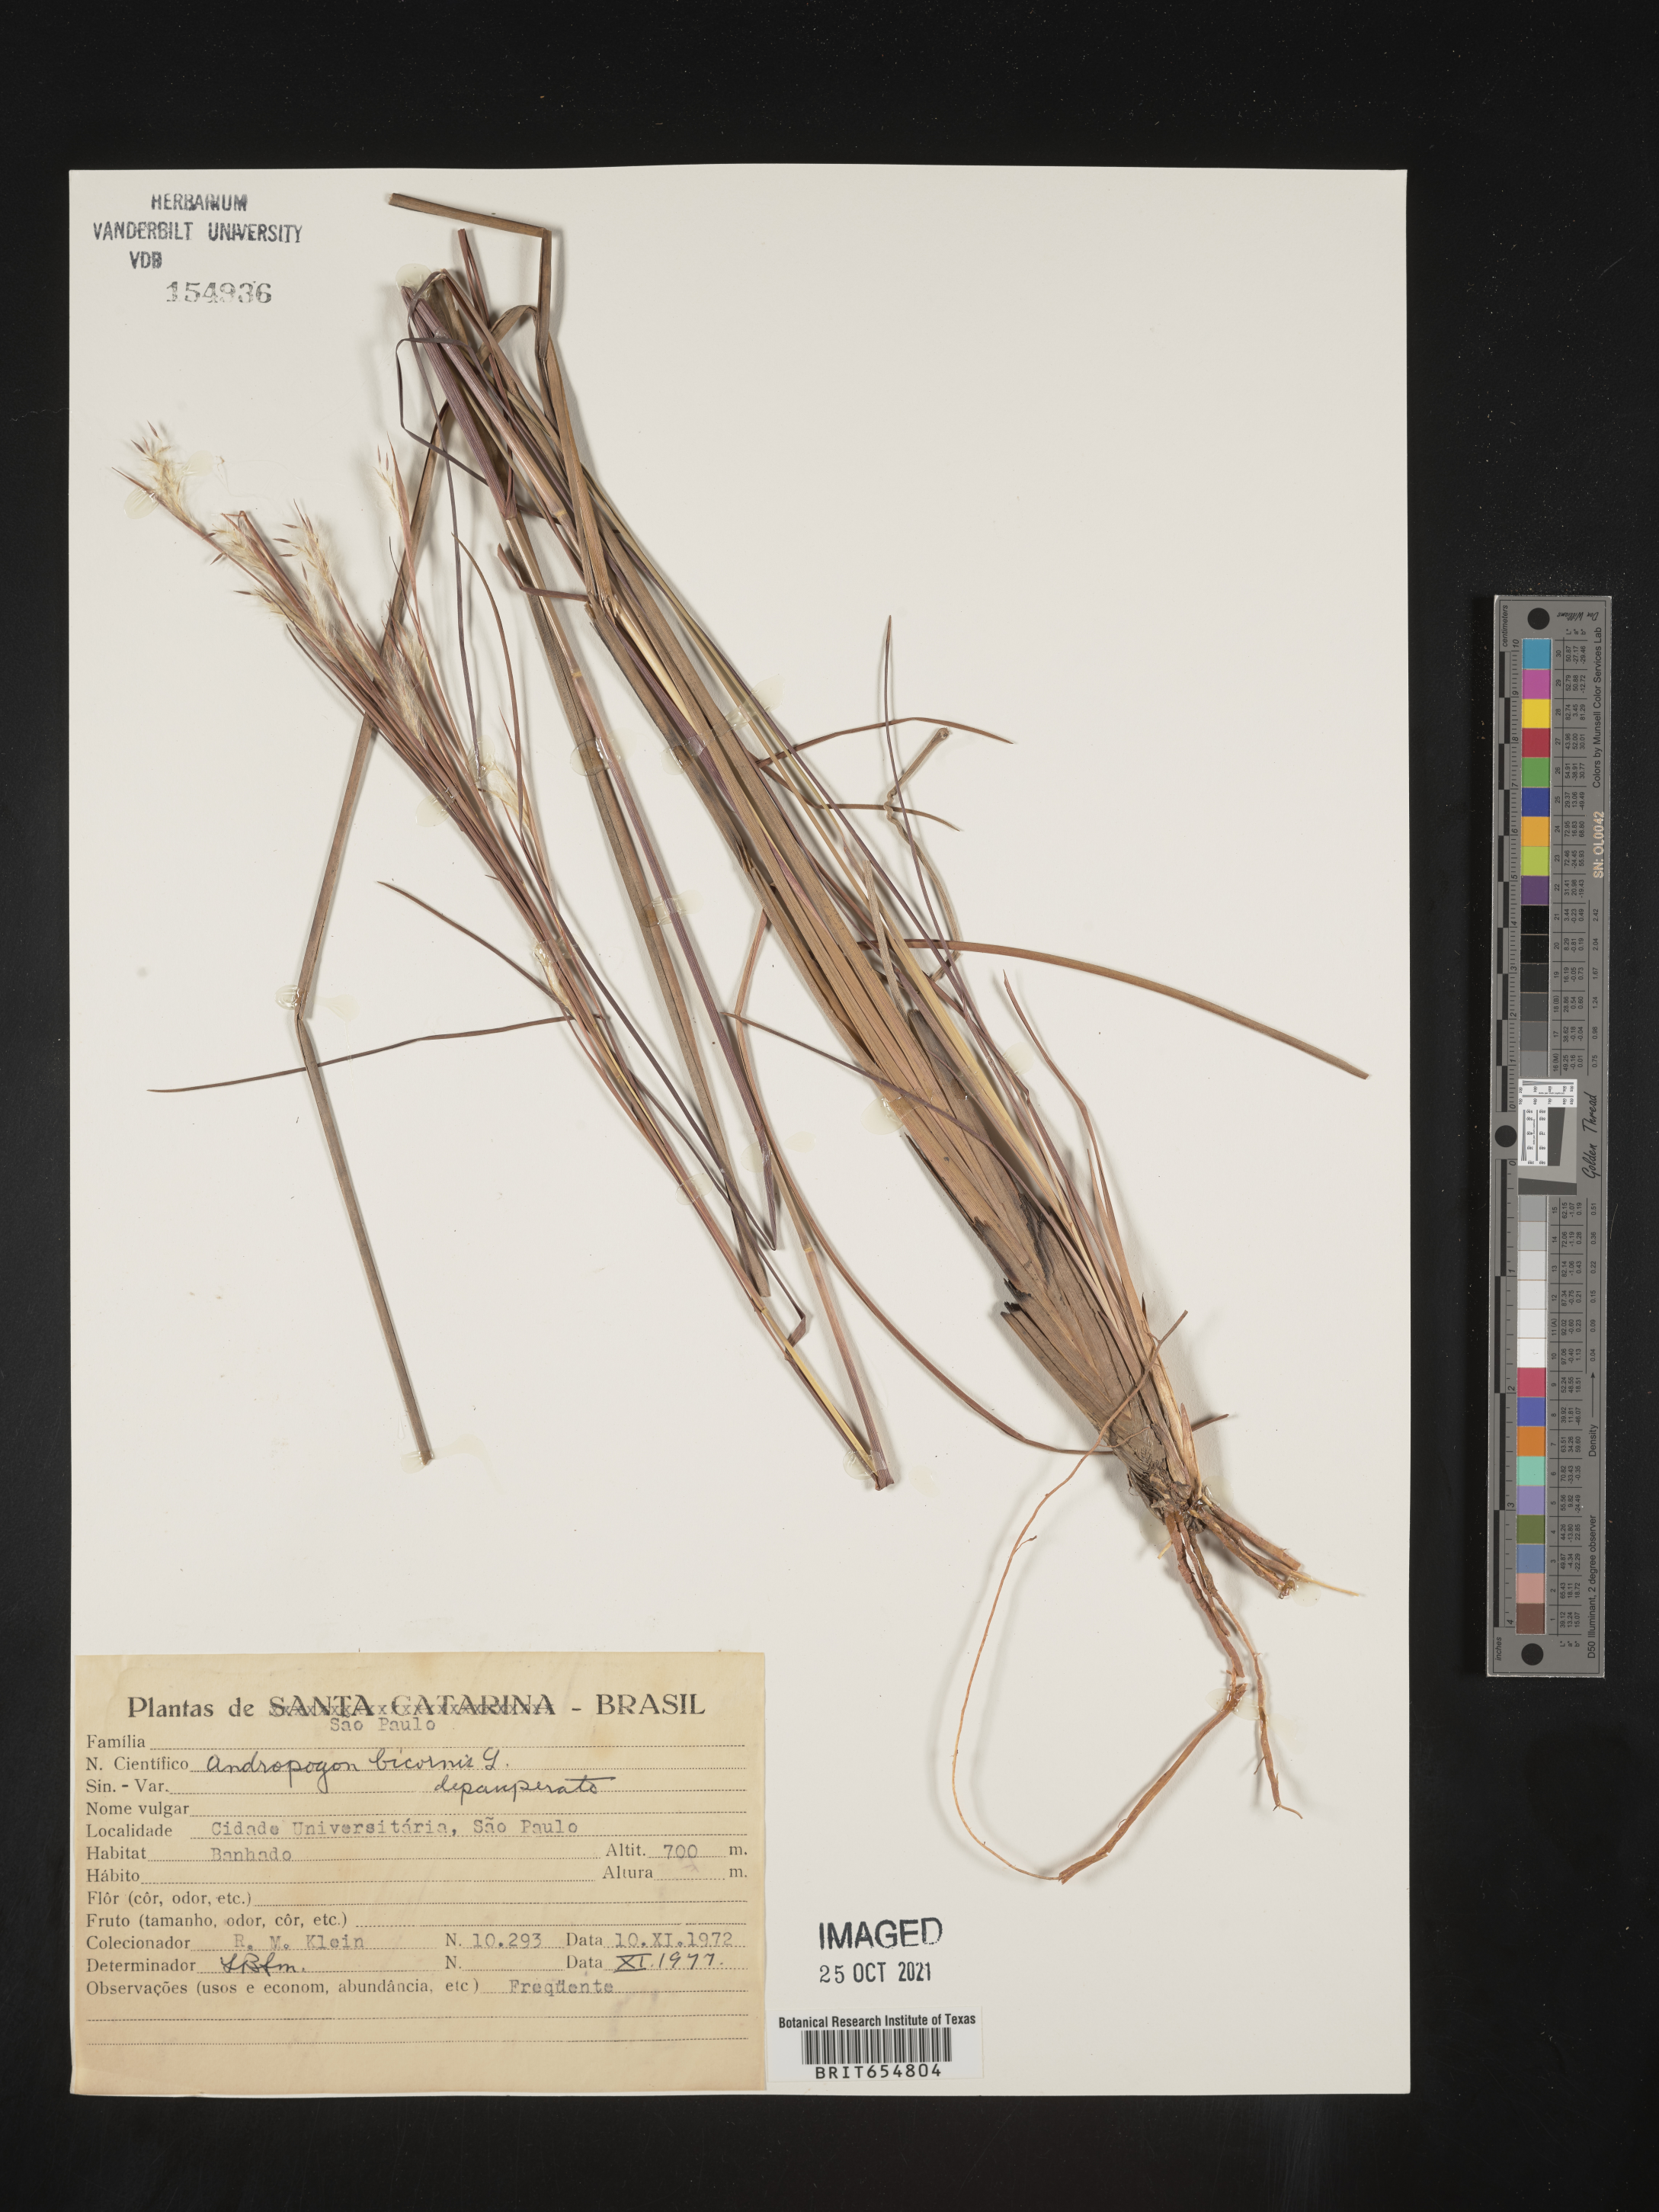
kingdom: Plantae
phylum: Tracheophyta
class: Liliopsida
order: Poales
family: Poaceae
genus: Andropogon
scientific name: Andropogon
